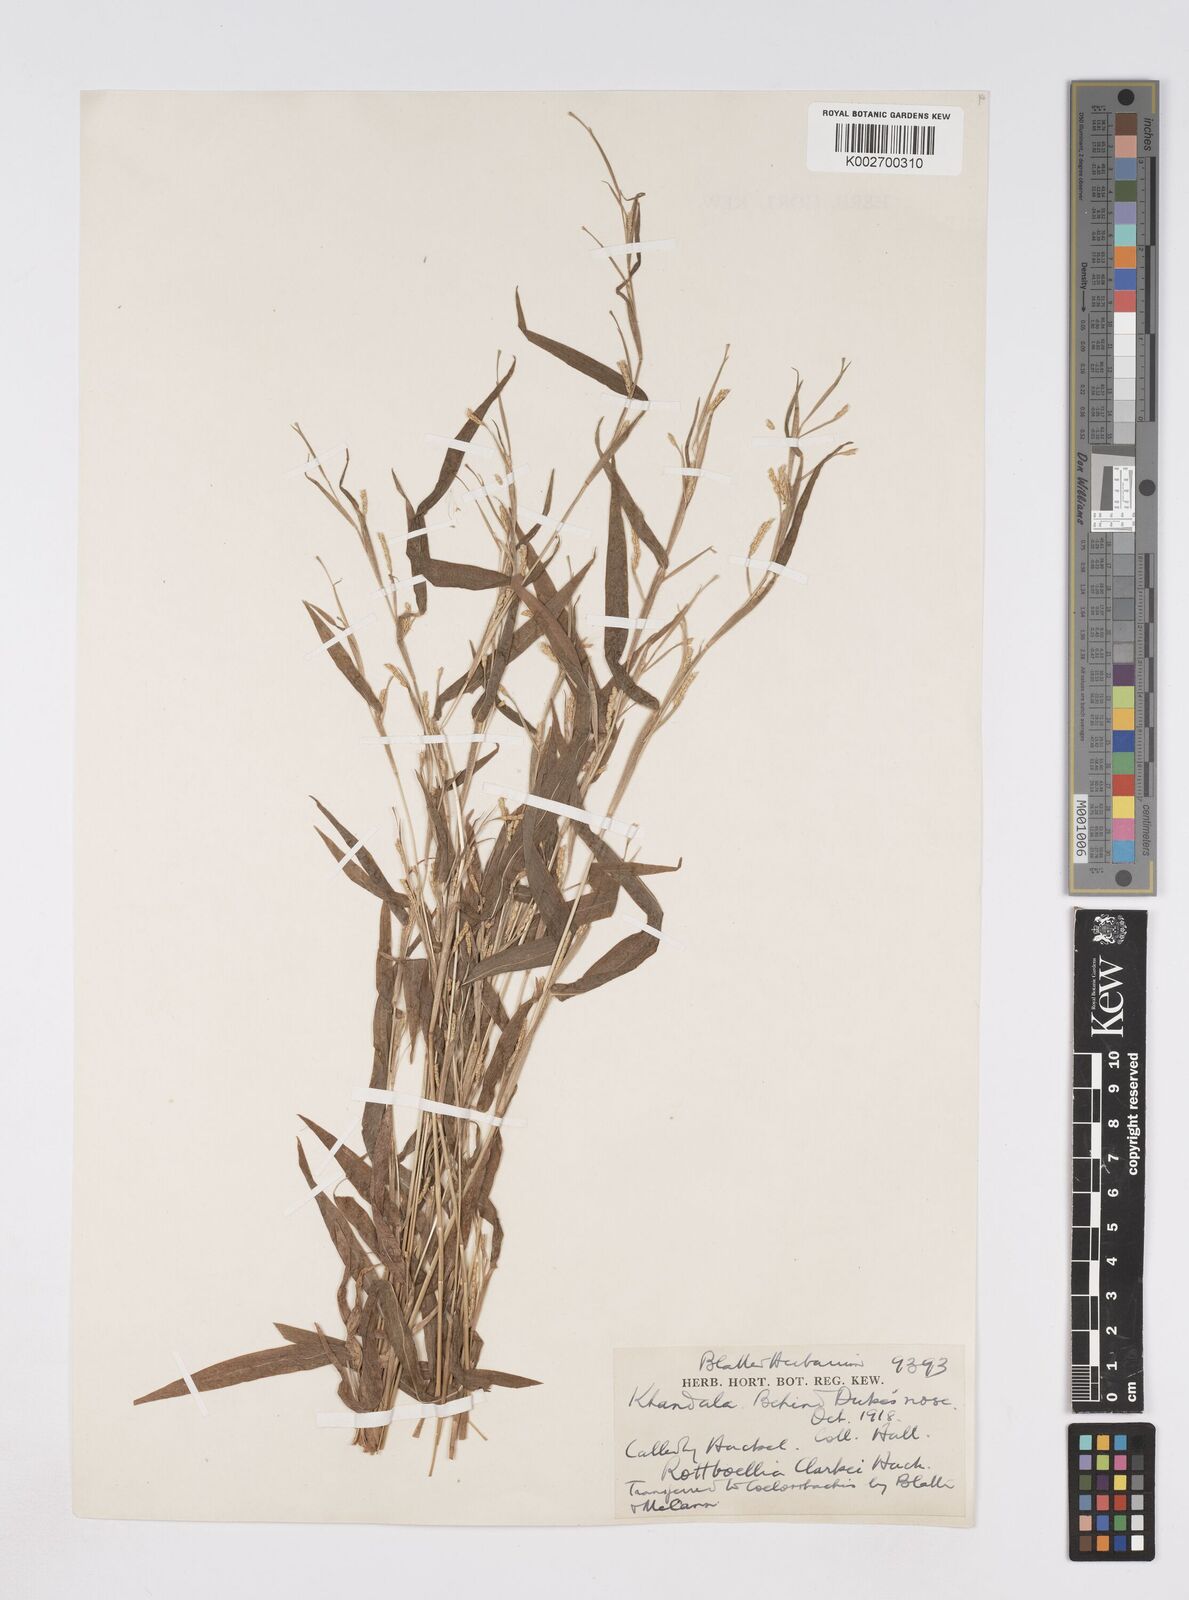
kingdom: Plantae
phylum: Tracheophyta
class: Liliopsida
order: Poales
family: Poaceae
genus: Rottboellia
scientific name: Rottboellia clarkei
